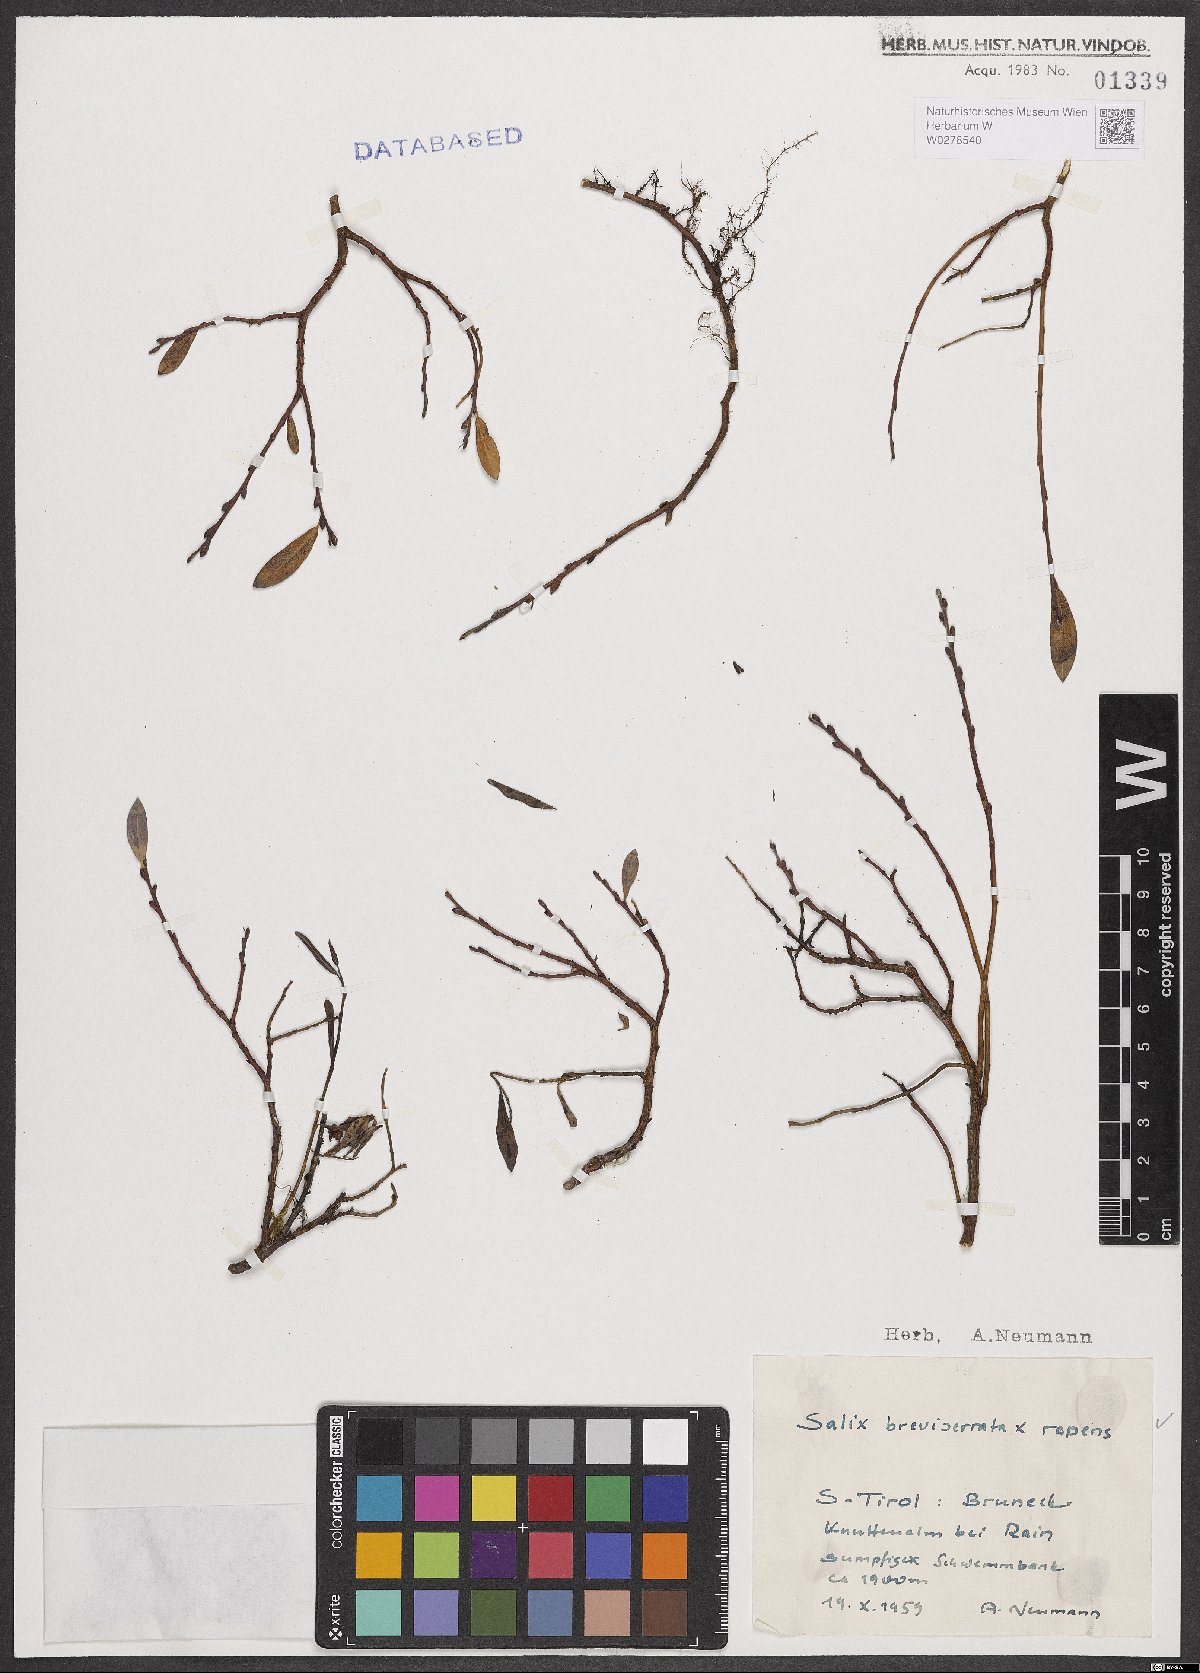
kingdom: Plantae
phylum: Tracheophyta
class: Magnoliopsida
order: Malpighiales
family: Salicaceae
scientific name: Salicaceae
